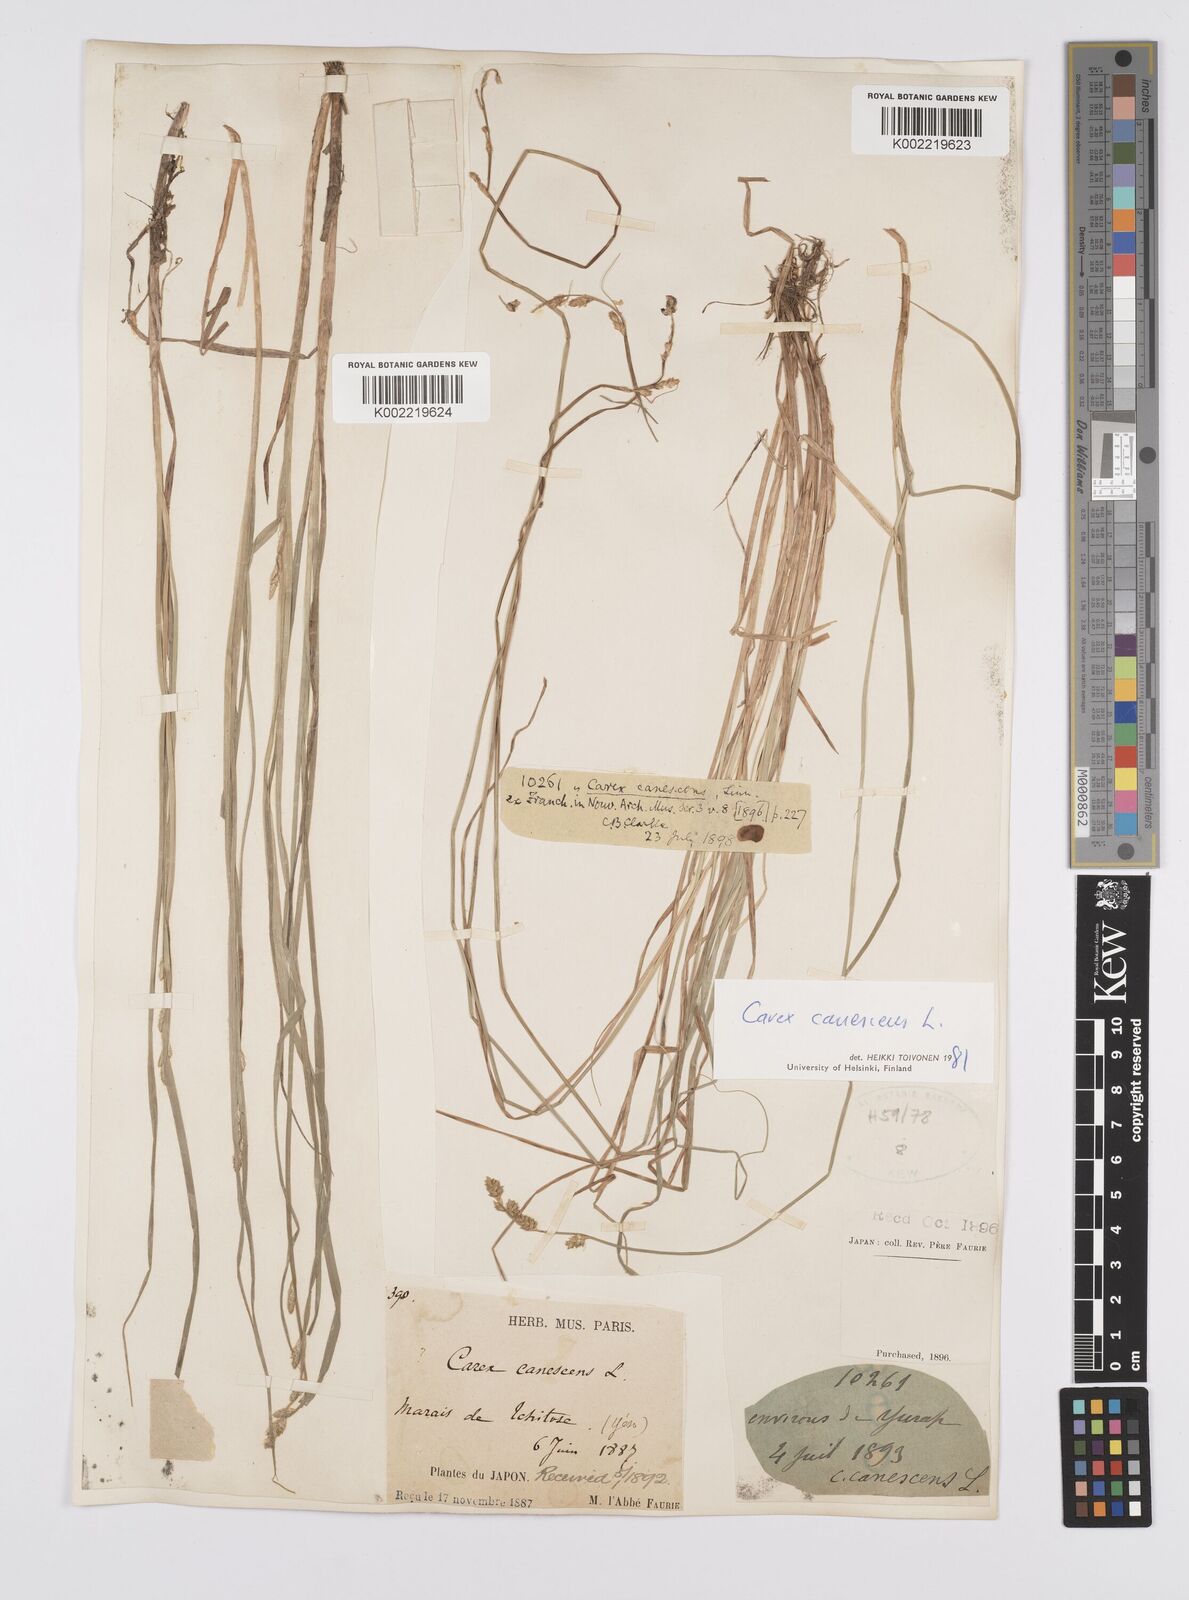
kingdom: Plantae
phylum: Tracheophyta
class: Liliopsida
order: Poales
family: Cyperaceae
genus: Carex
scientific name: Carex canescens
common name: White sedge
